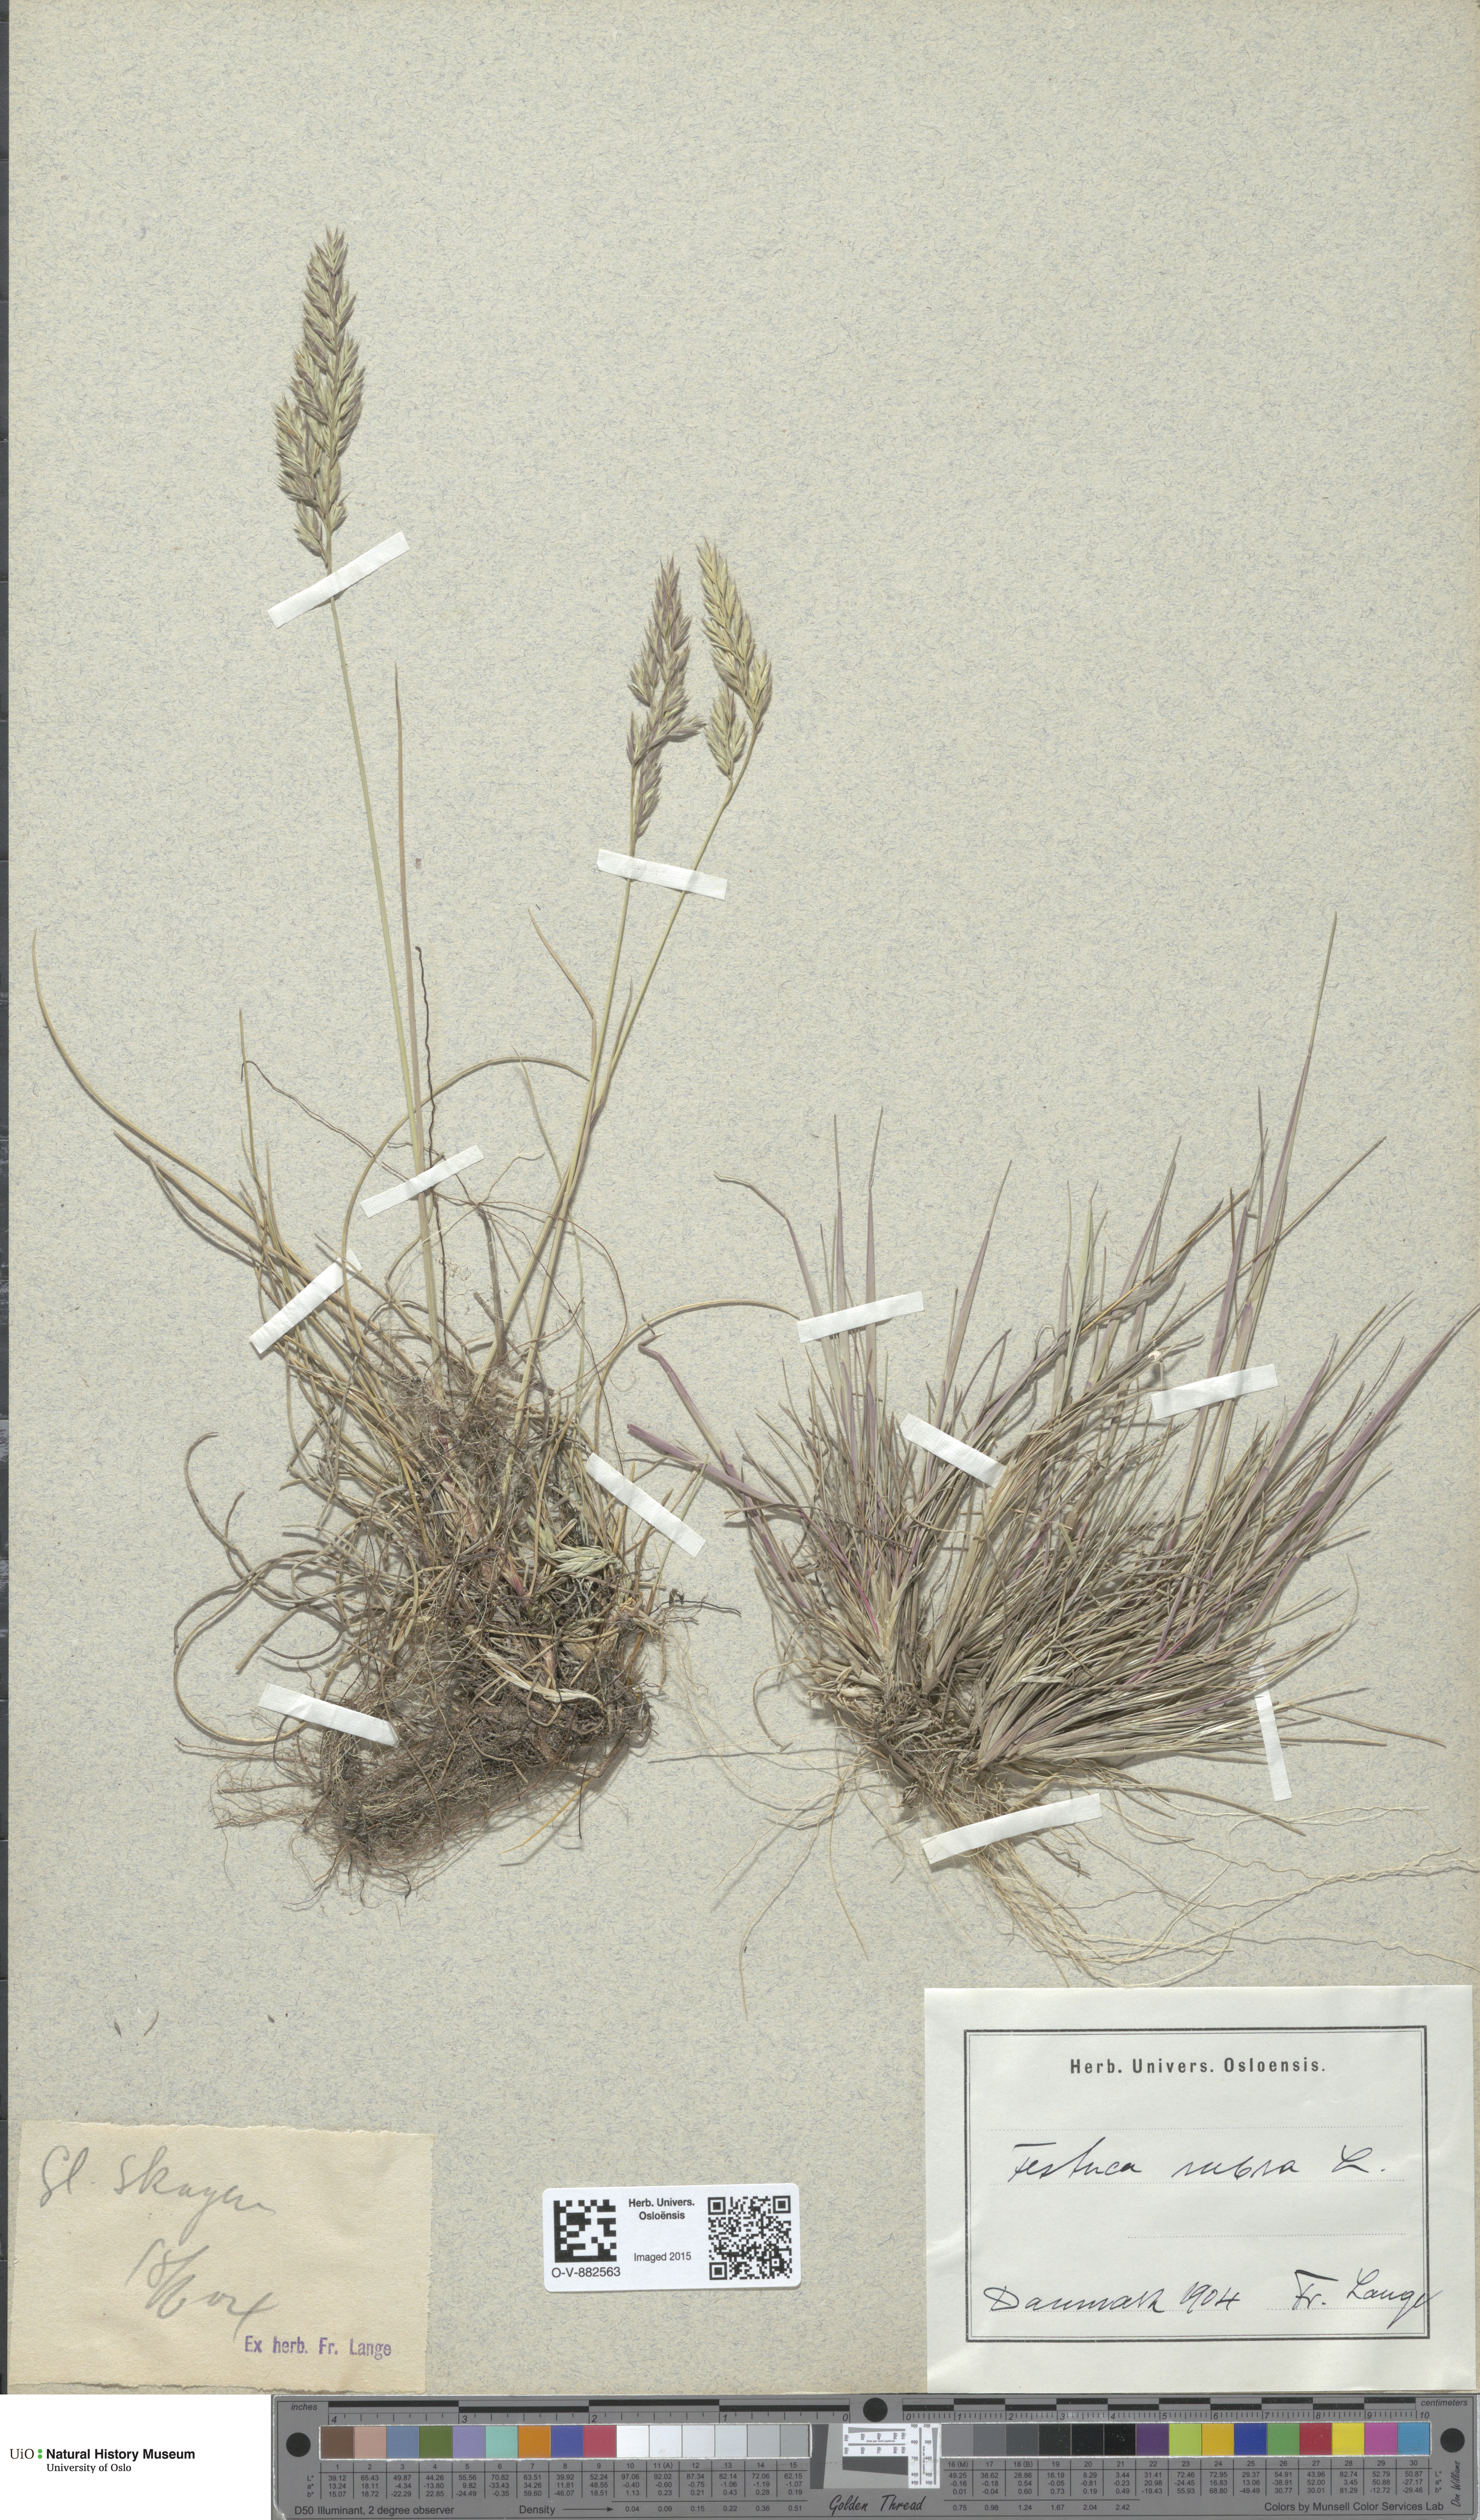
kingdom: Plantae
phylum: Tracheophyta
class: Liliopsida
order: Poales
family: Poaceae
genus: Festuca
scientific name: Festuca rubra
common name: Red fescue
